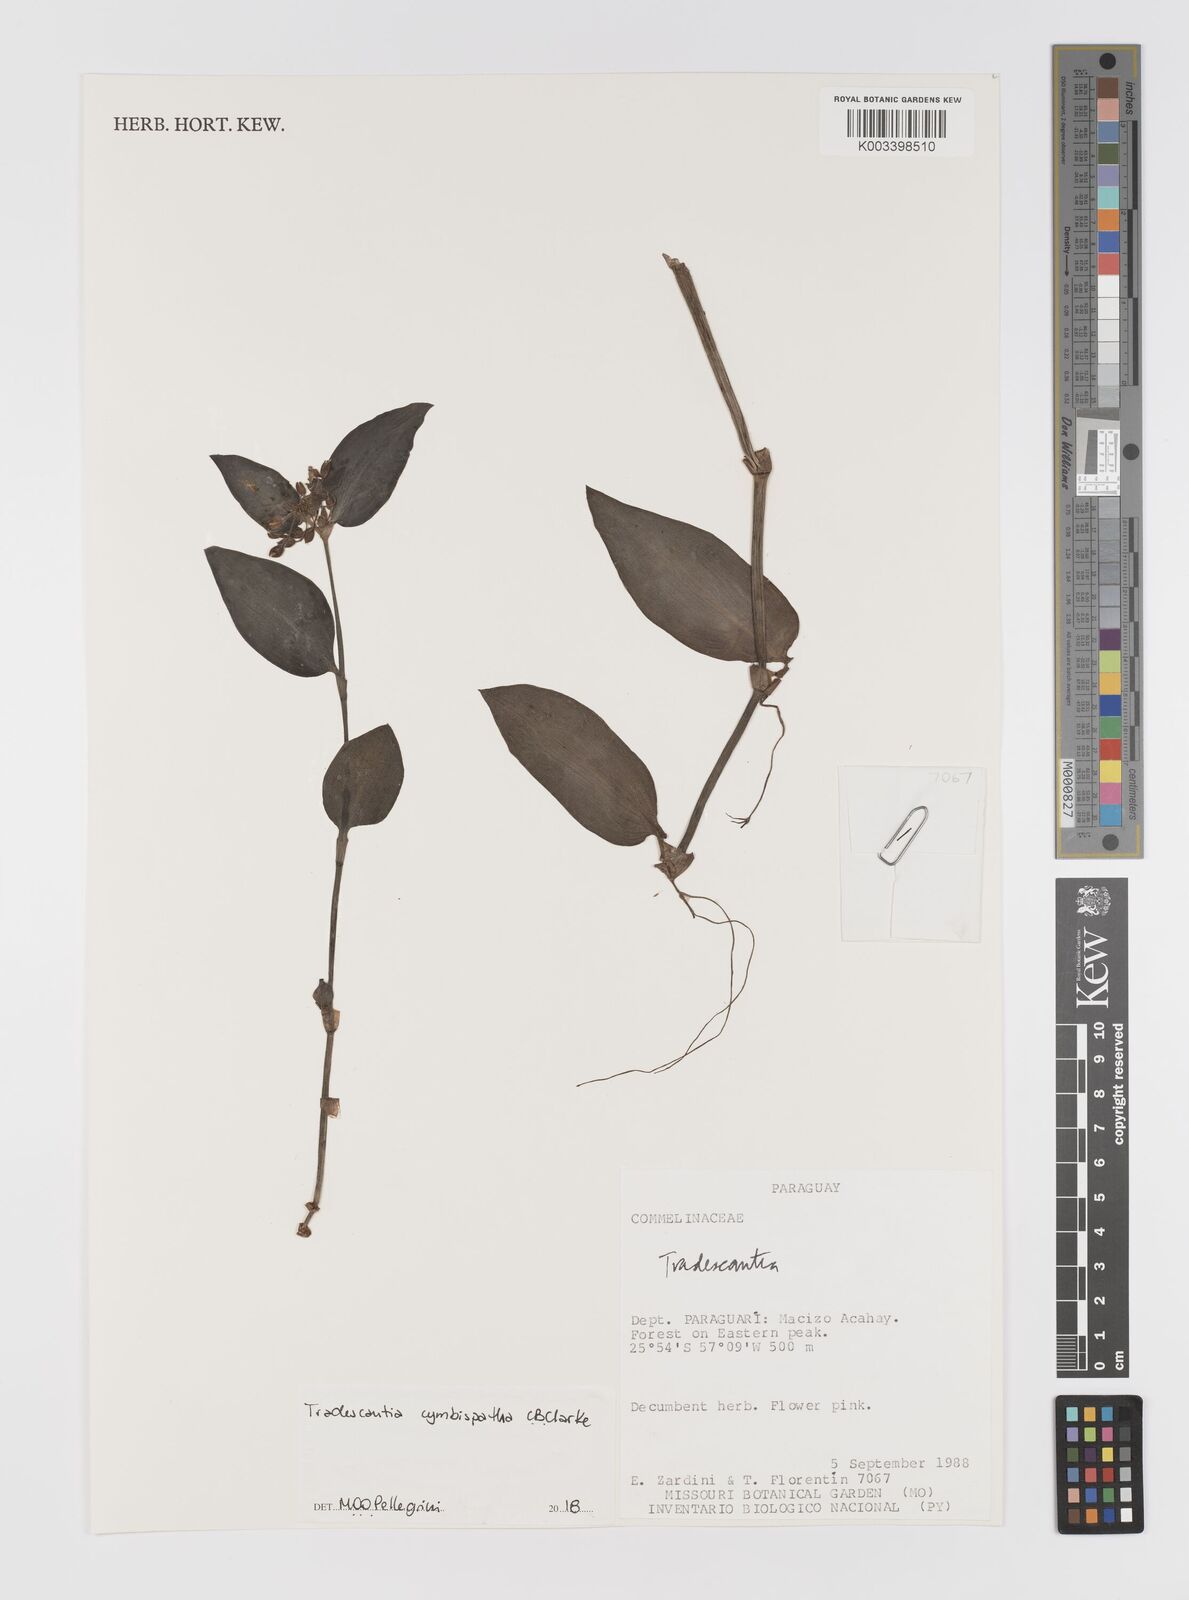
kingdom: Plantae
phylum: Tracheophyta
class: Liliopsida
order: Commelinales
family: Commelinaceae
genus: Tradescantia
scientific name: Tradescantia cymbispatha
